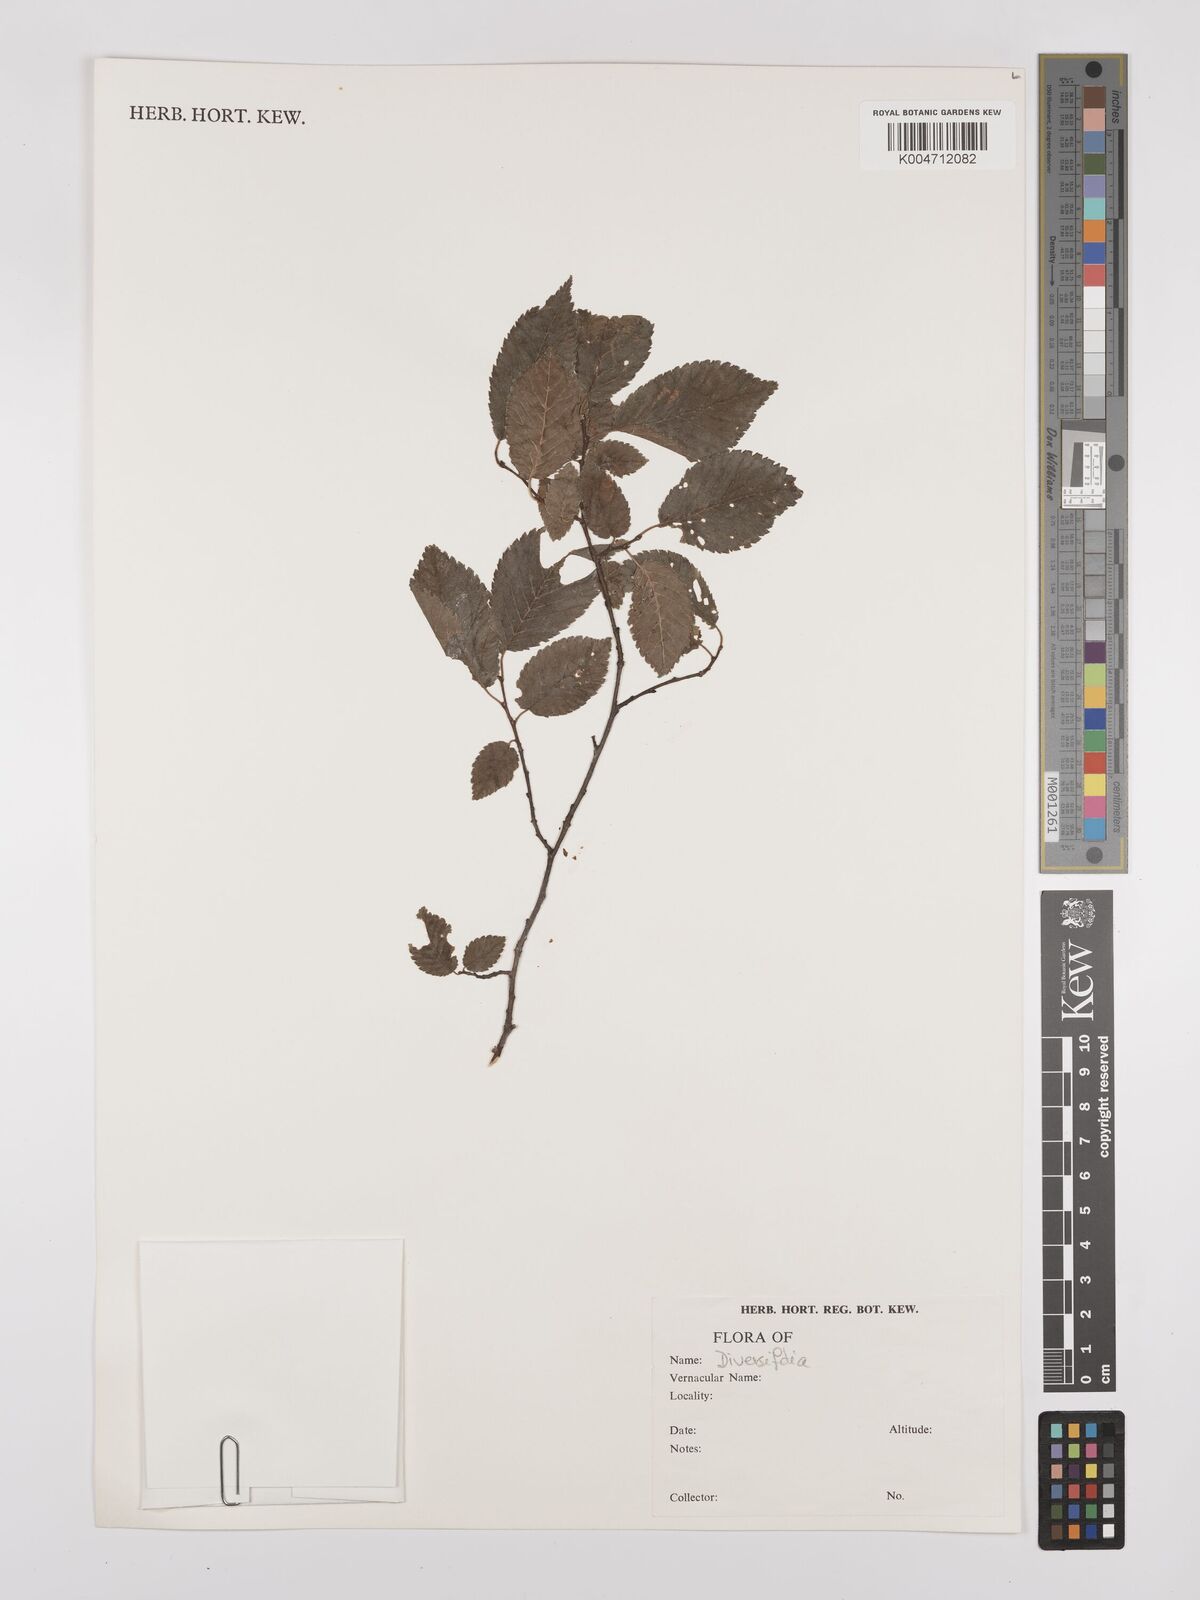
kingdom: Plantae
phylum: Tracheophyta
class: Magnoliopsida
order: Rosales
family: Ulmaceae
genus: Ulmus
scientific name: Ulmus minor
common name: Small-leaved elm
